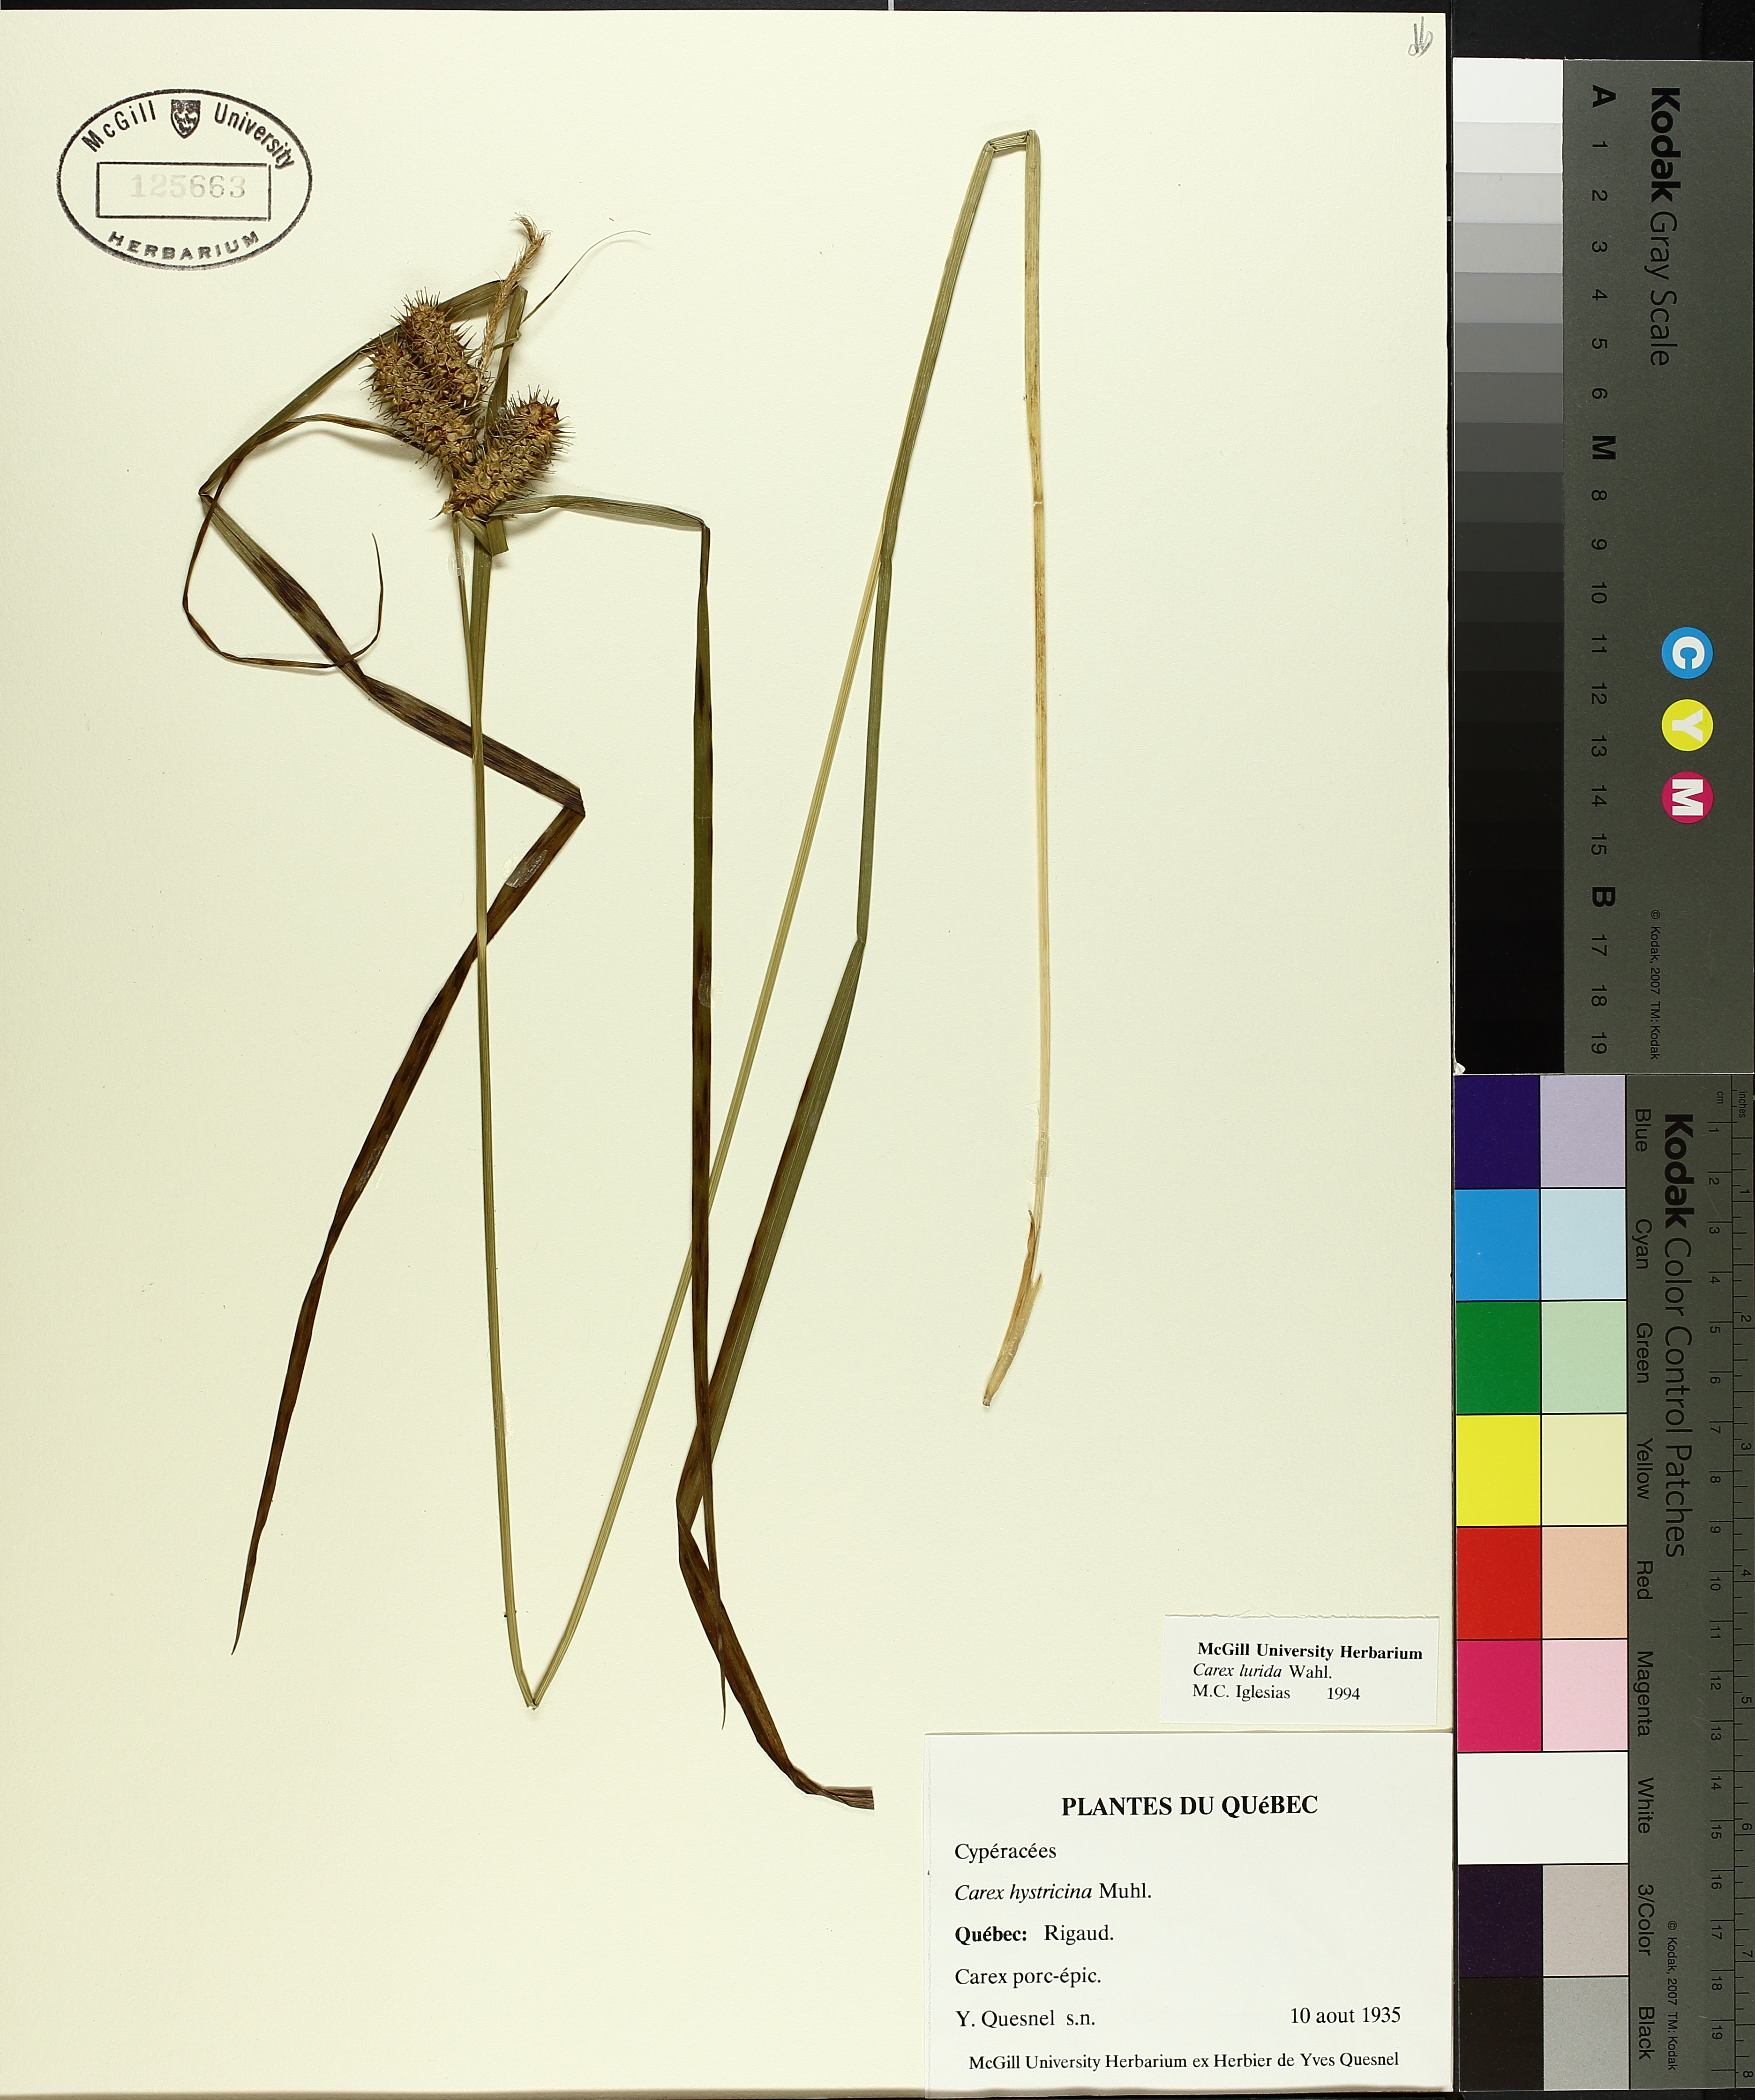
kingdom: Plantae
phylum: Tracheophyta
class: Liliopsida
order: Poales
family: Cyperaceae
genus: Carex
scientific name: Carex lurida
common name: Sallow sedge
